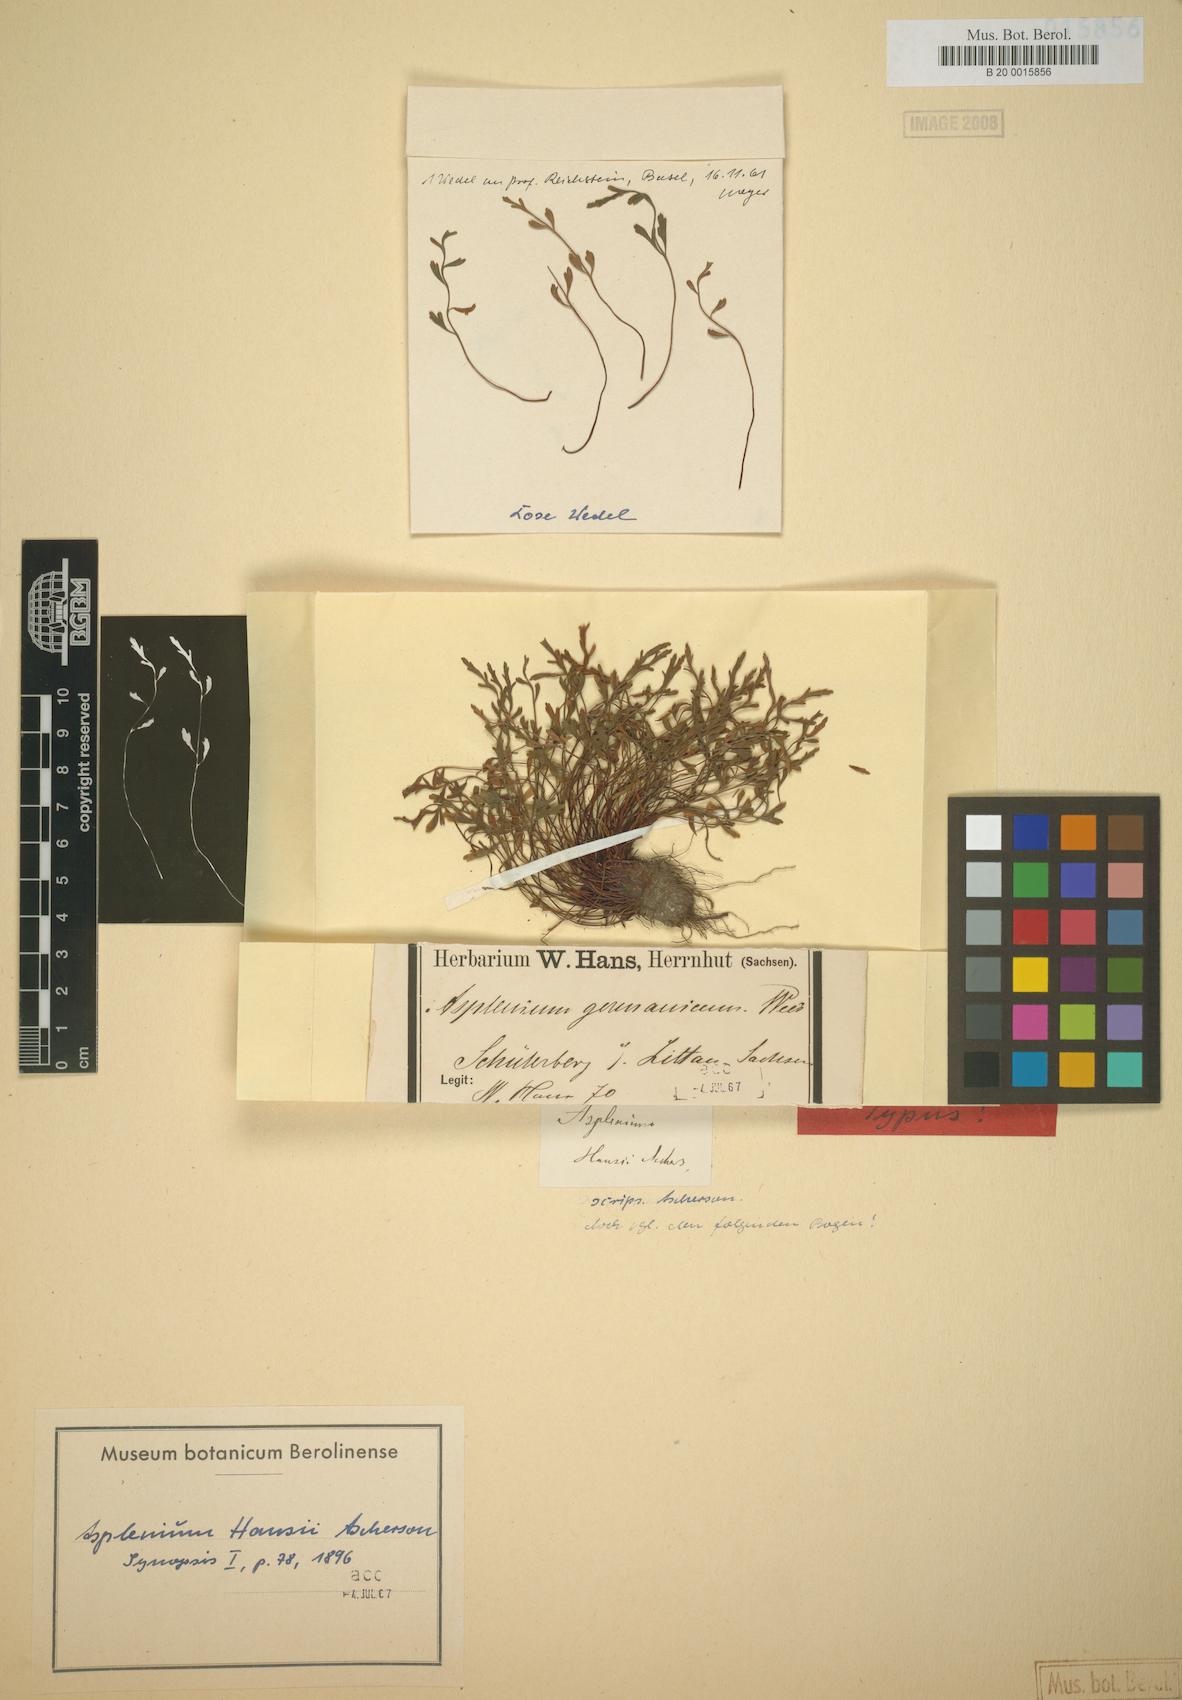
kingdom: Plantae
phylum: Tracheophyta
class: Polypodiopsida
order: Polypodiales
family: Aspleniaceae
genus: Asplenium
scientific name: Asplenium alternifolium
